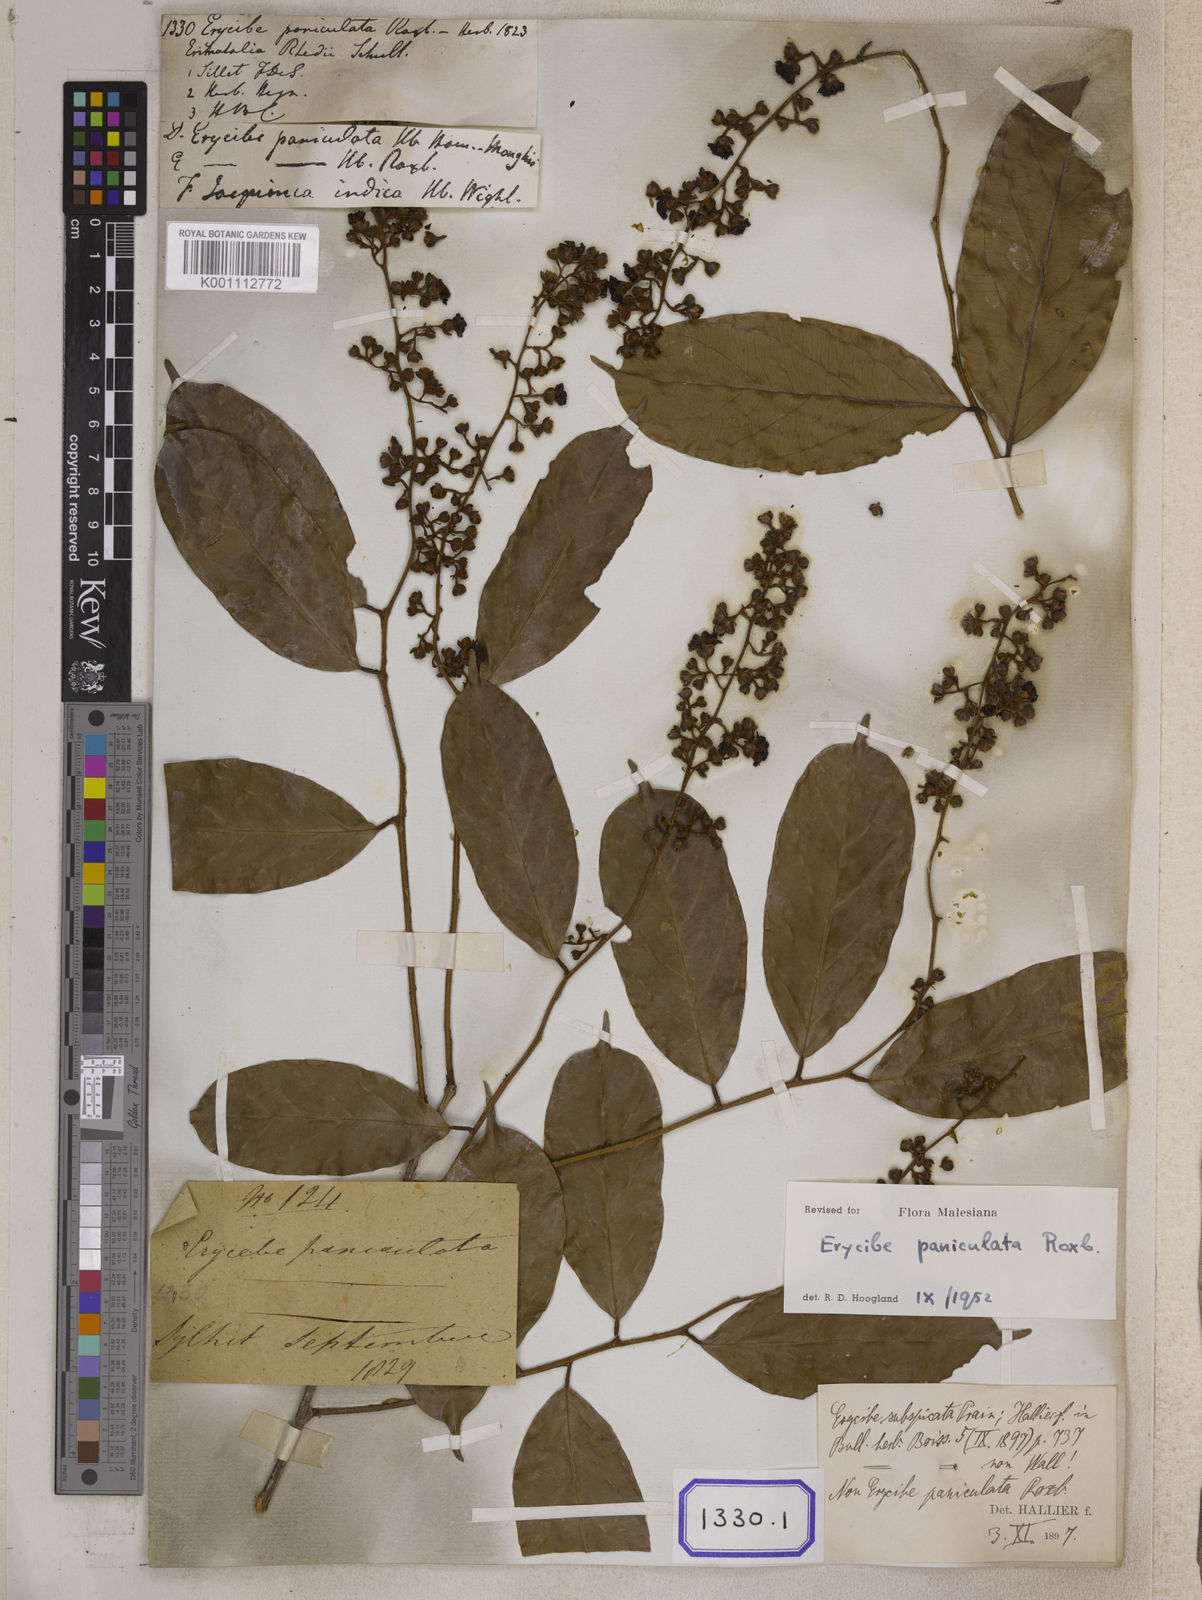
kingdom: Plantae
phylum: Tracheophyta
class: Magnoliopsida
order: Solanales
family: Convolvulaceae
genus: Erycibe
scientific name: Erycibe paniculata
